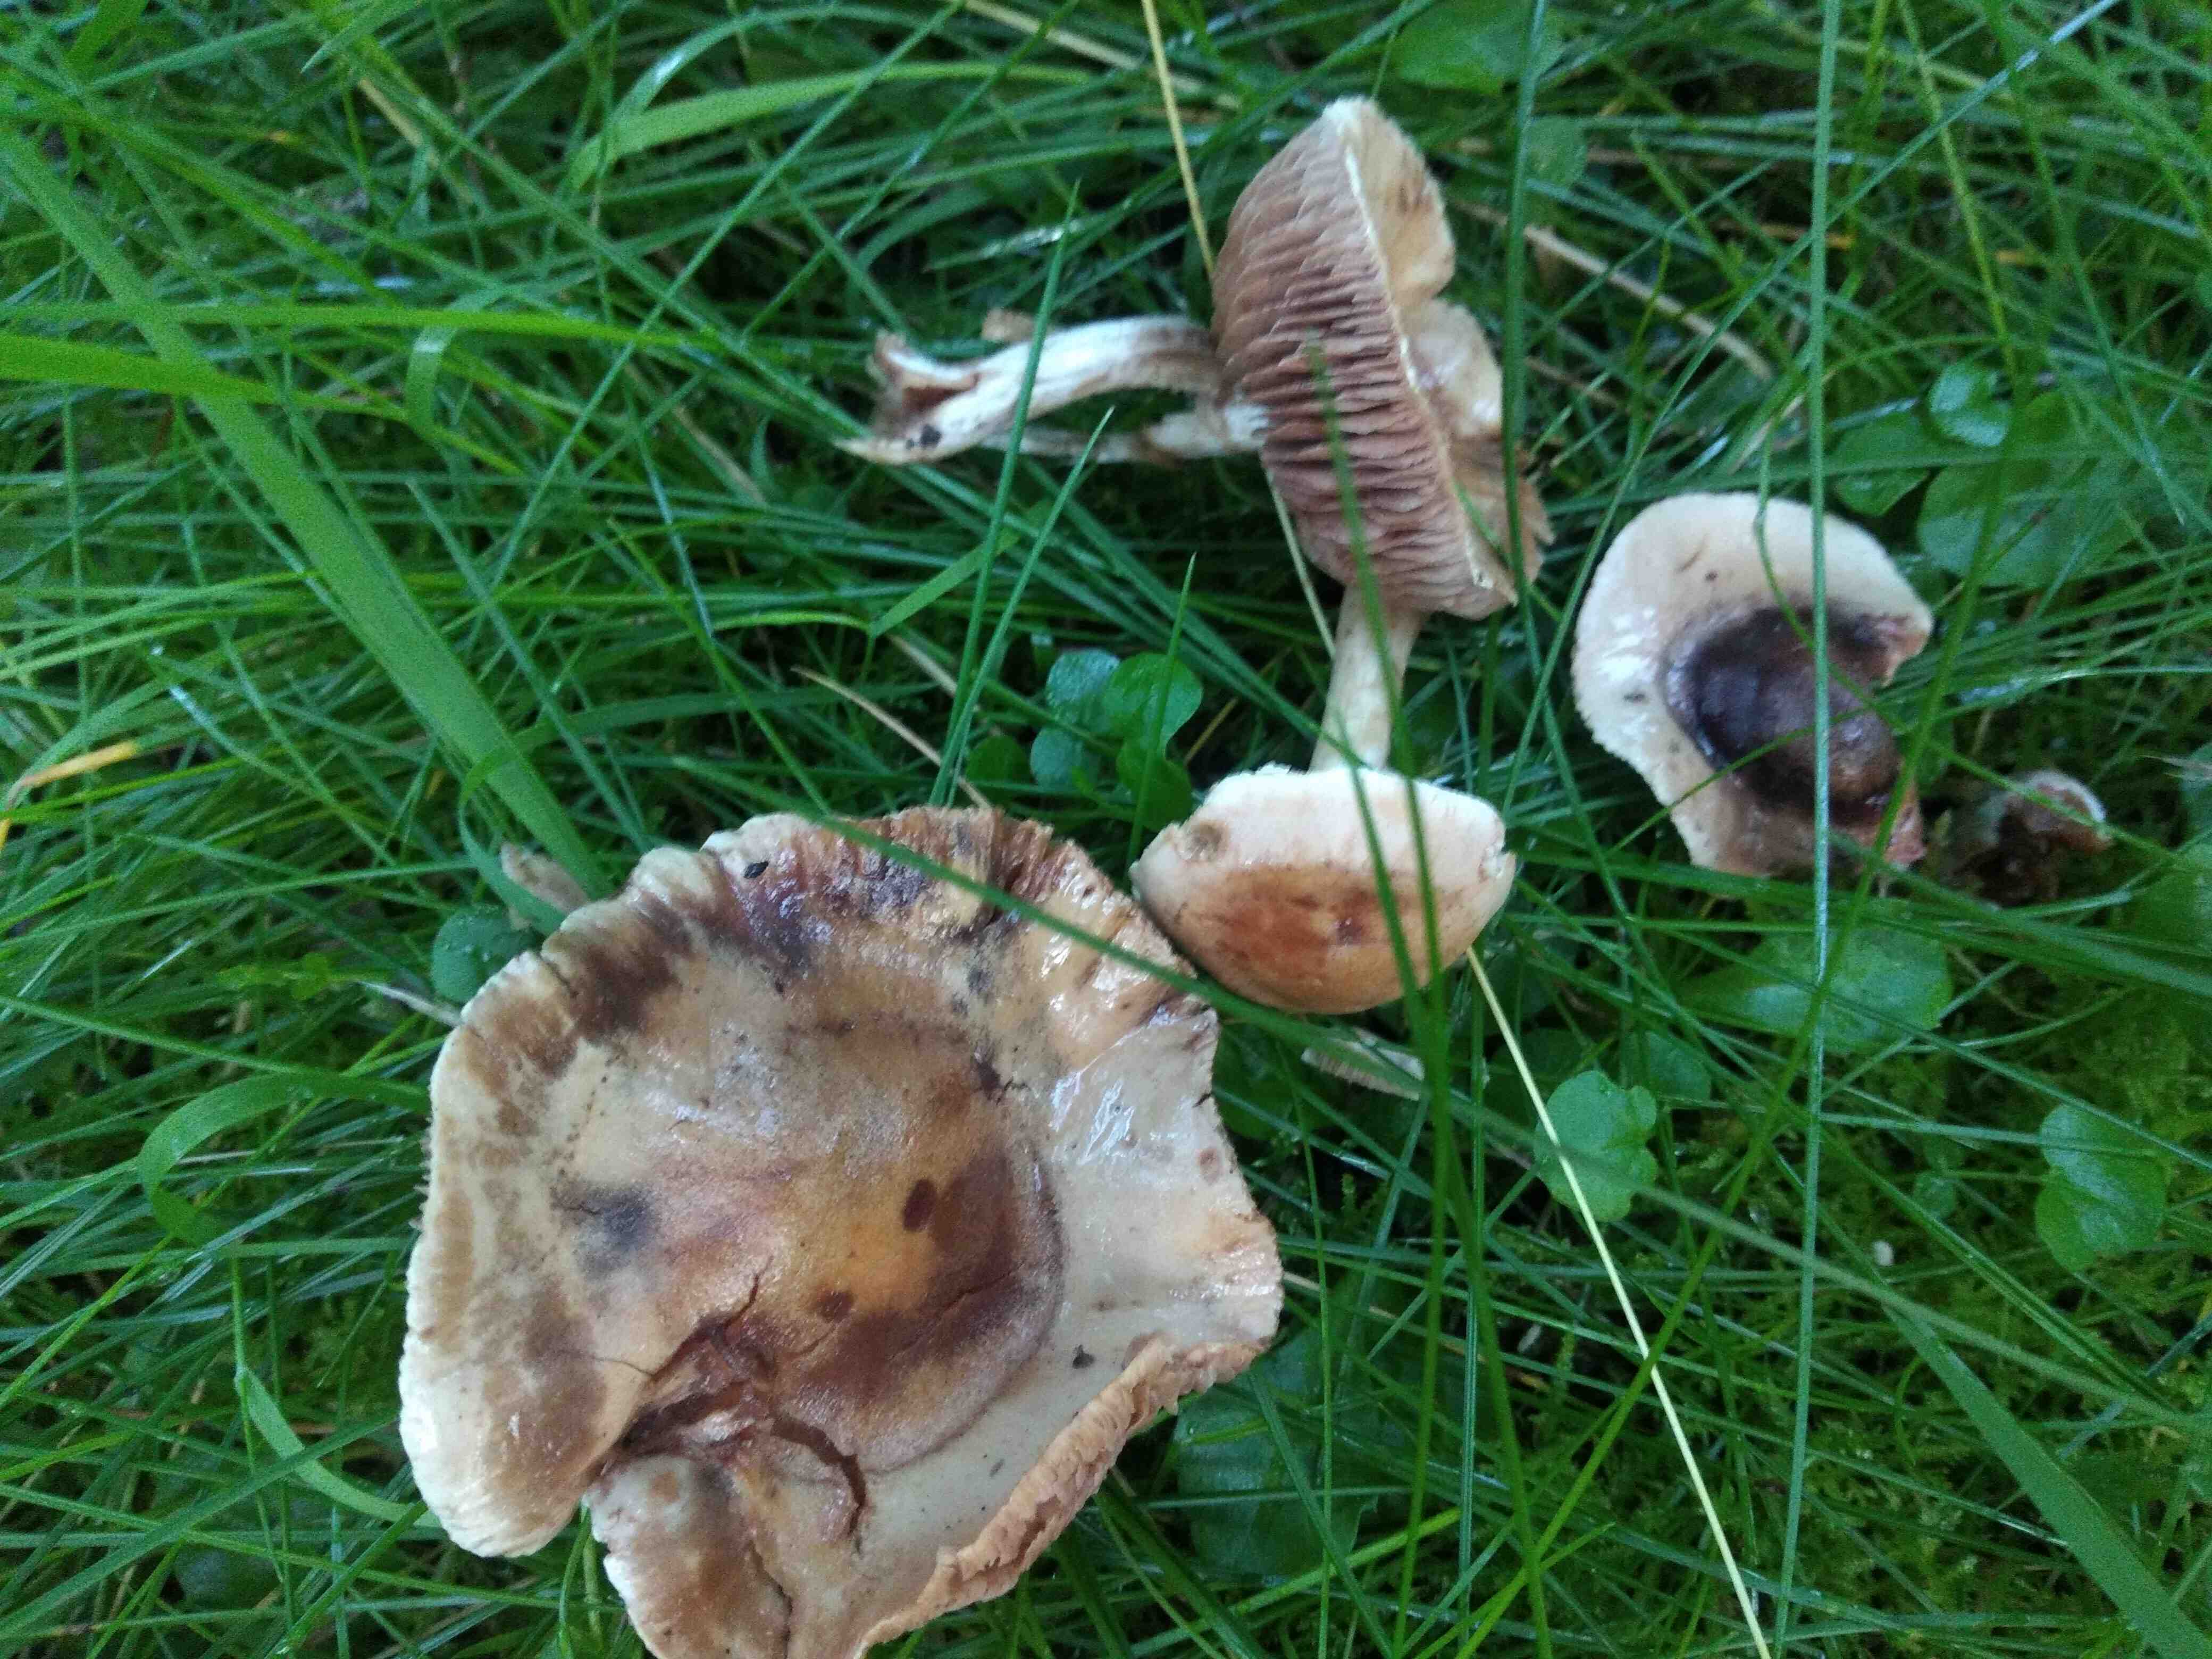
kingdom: Fungi
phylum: Basidiomycota
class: Agaricomycetes
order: Agaricales
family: Hymenogastraceae
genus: Hebeloma
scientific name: Hebeloma
